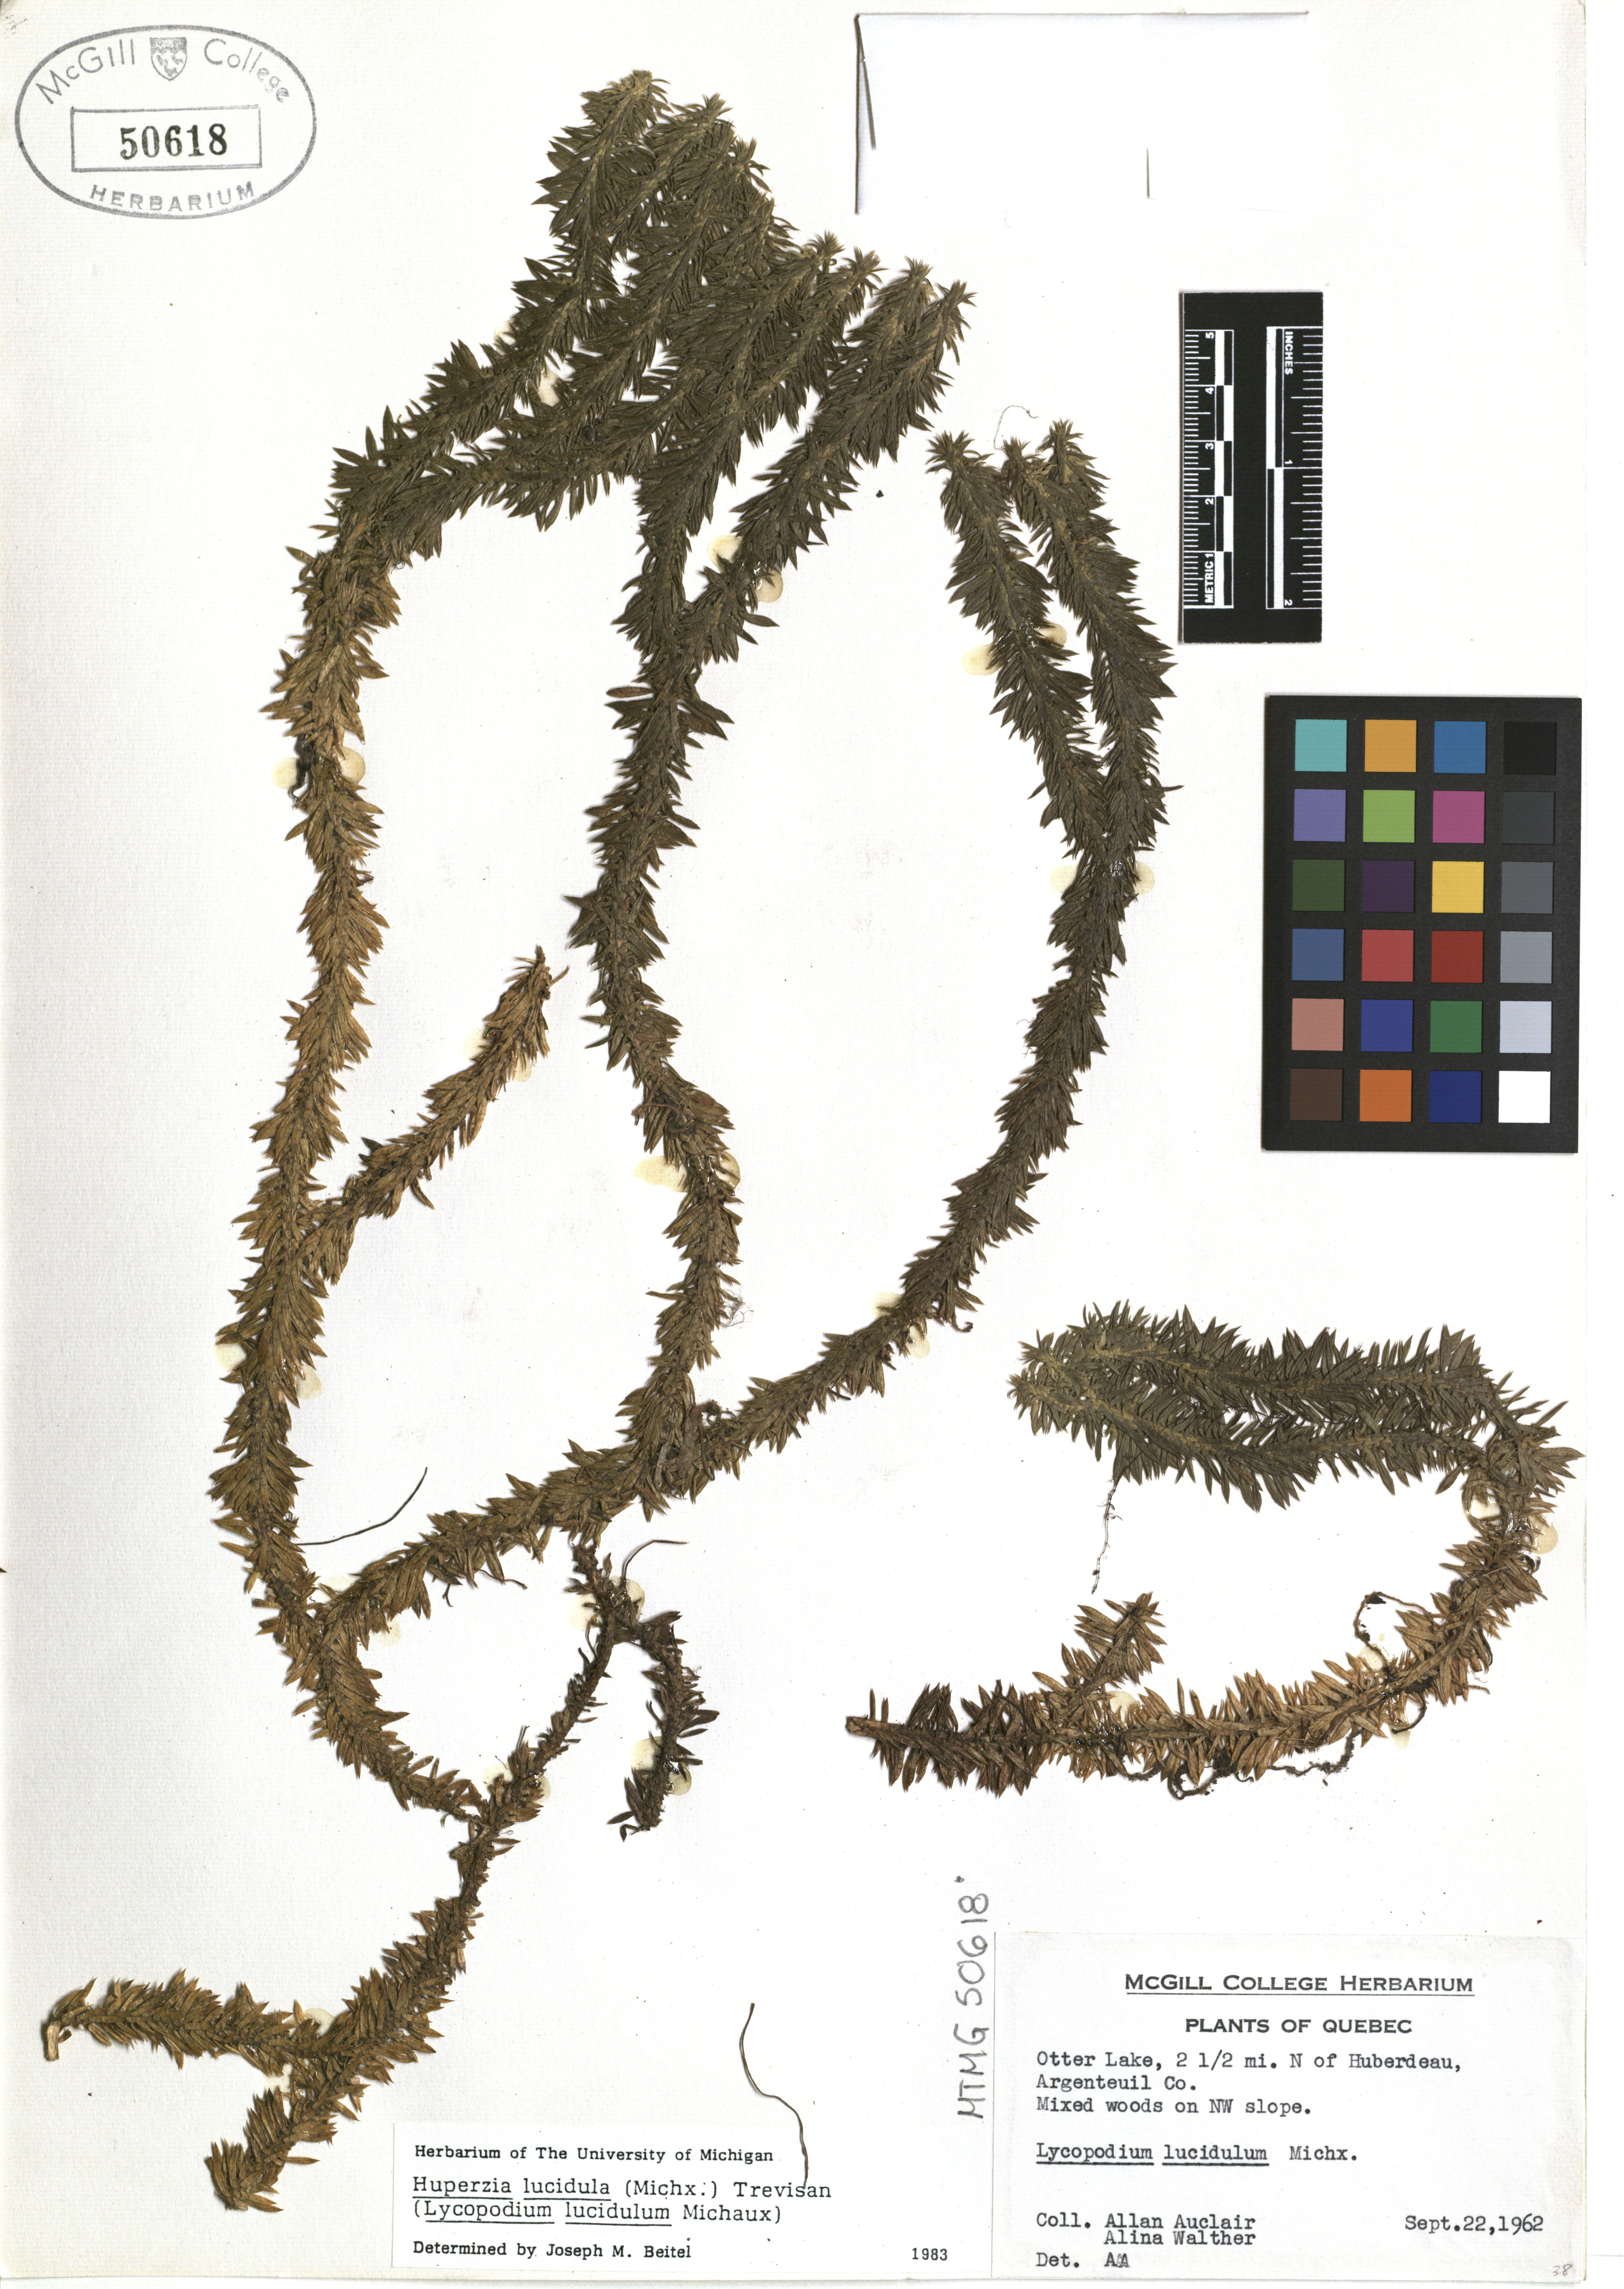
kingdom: Plantae
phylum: Tracheophyta
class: Lycopodiopsida
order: Lycopodiales
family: Lycopodiaceae
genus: Huperzia
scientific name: Huperzia lucidula
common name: Shining clubmoss
